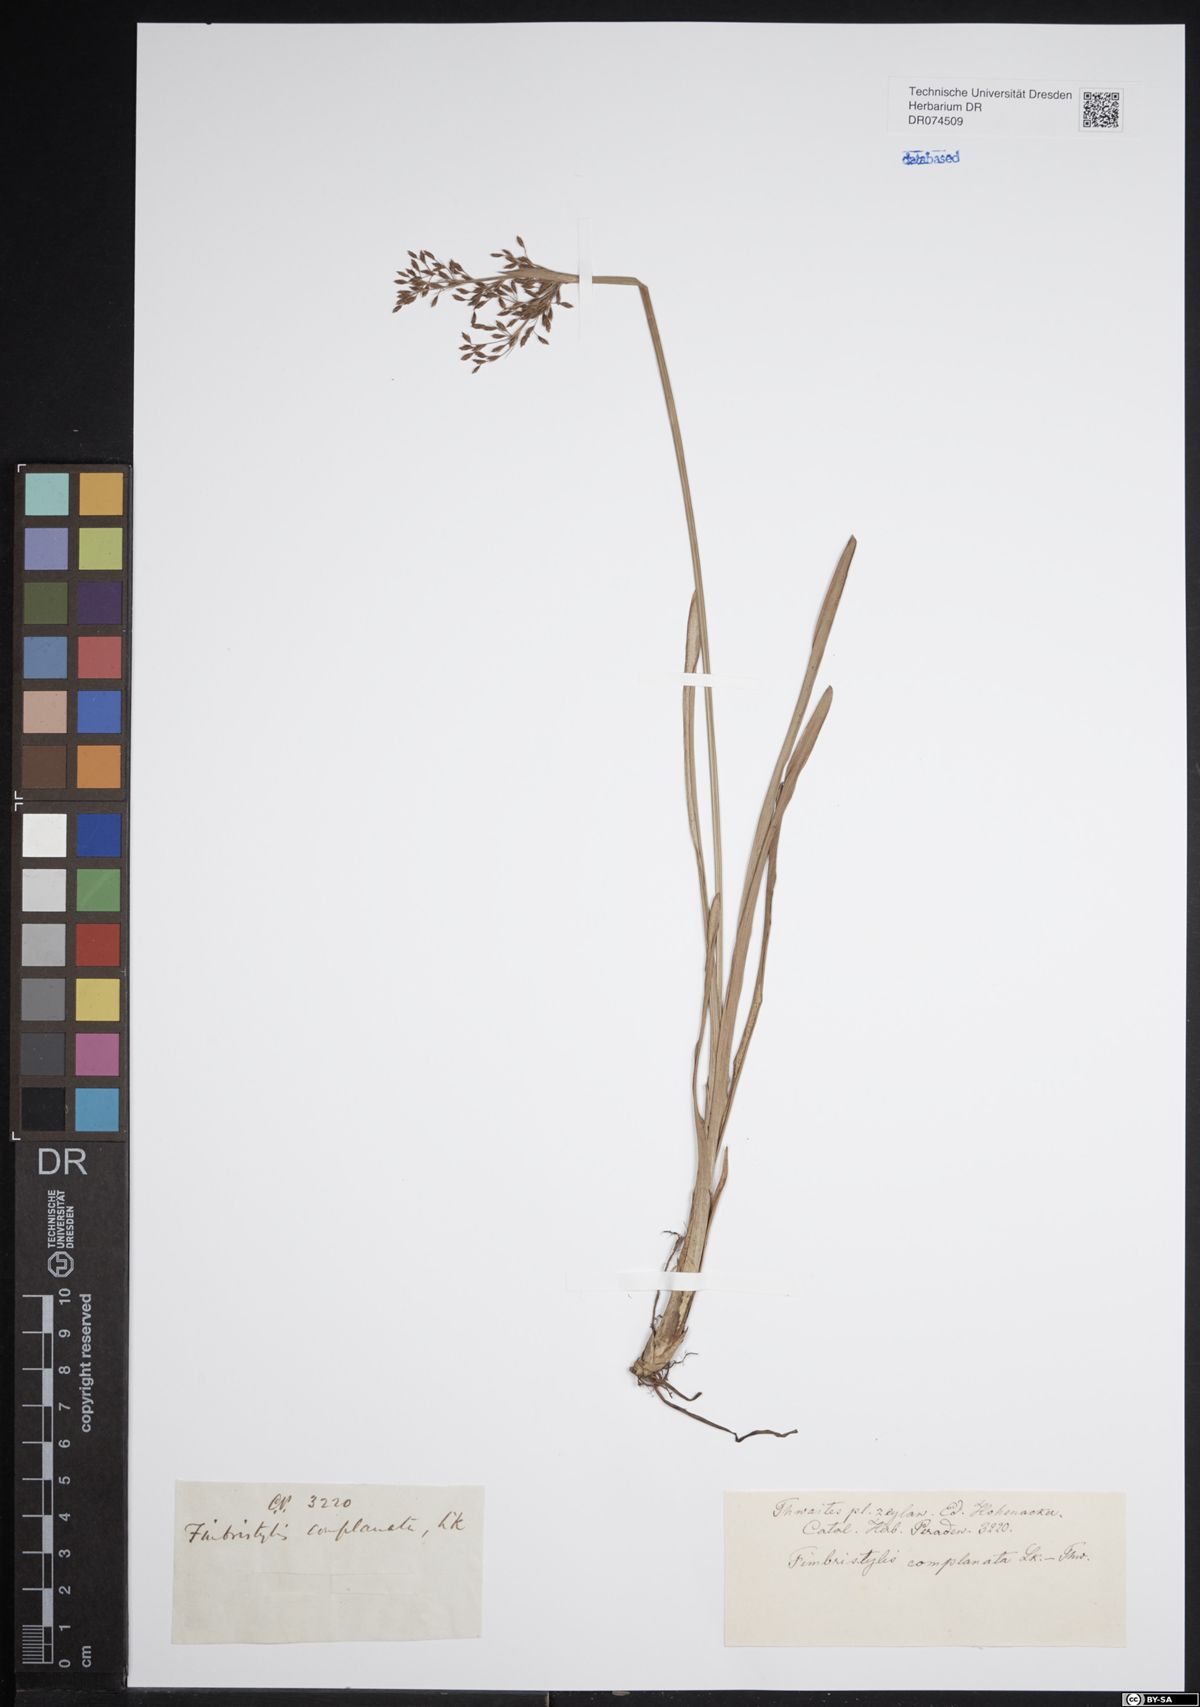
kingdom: Plantae
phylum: Tracheophyta
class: Liliopsida
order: Poales
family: Cyperaceae
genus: Fimbristylis
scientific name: Fimbristylis complanata
